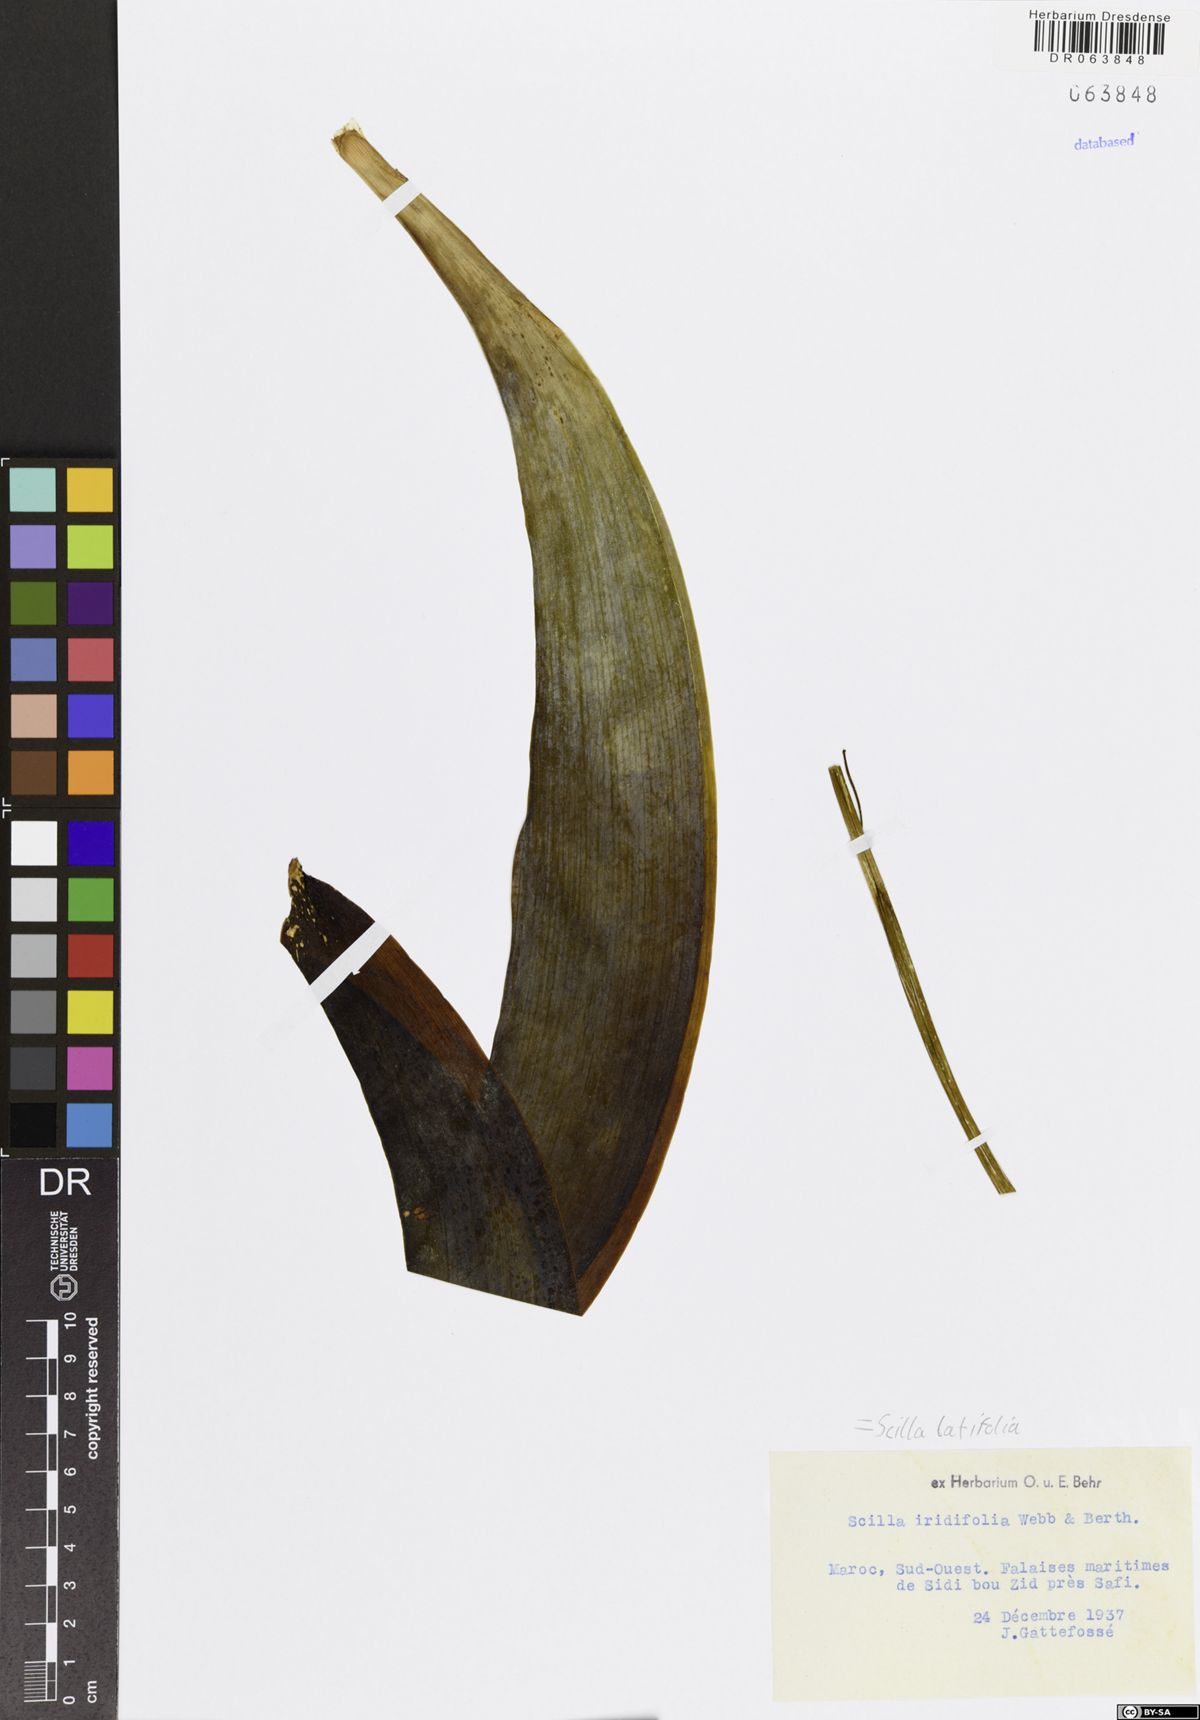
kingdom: Plantae
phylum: Tracheophyta
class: Liliopsida
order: Asparagales
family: Asparagaceae
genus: Scilla
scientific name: Scilla latifolia
